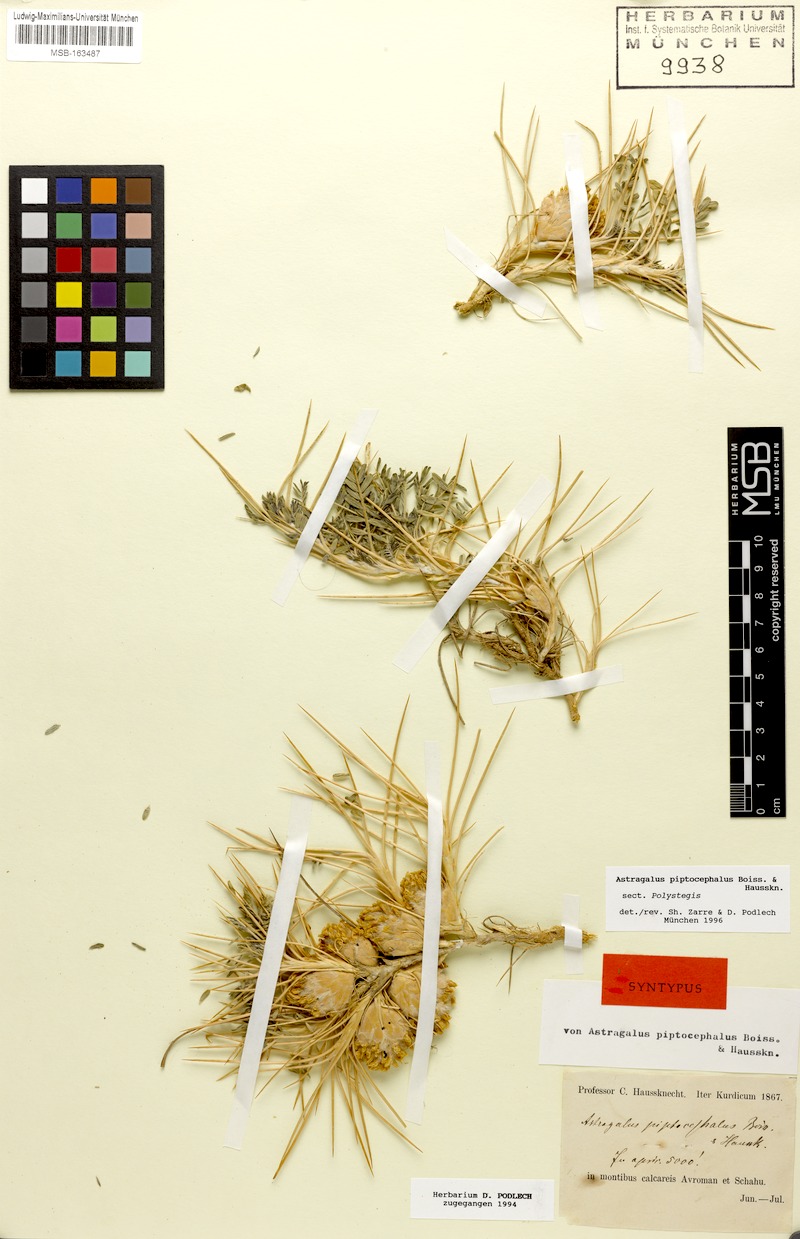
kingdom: Plantae
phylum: Tracheophyta
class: Magnoliopsida
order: Fabales
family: Fabaceae
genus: Astragalus
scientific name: Astragalus piptocephalus
